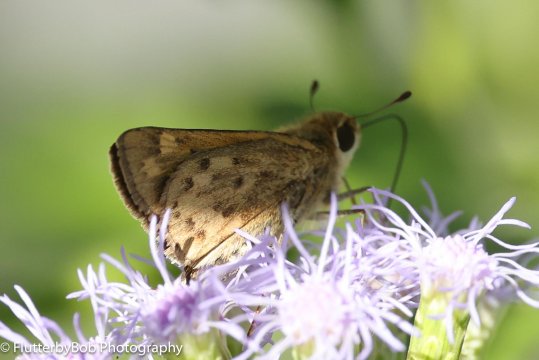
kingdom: Animalia
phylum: Arthropoda
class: Insecta
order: Lepidoptera
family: Hesperiidae
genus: Hylephila
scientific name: Hylephila phyleus
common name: Fiery Skipper
